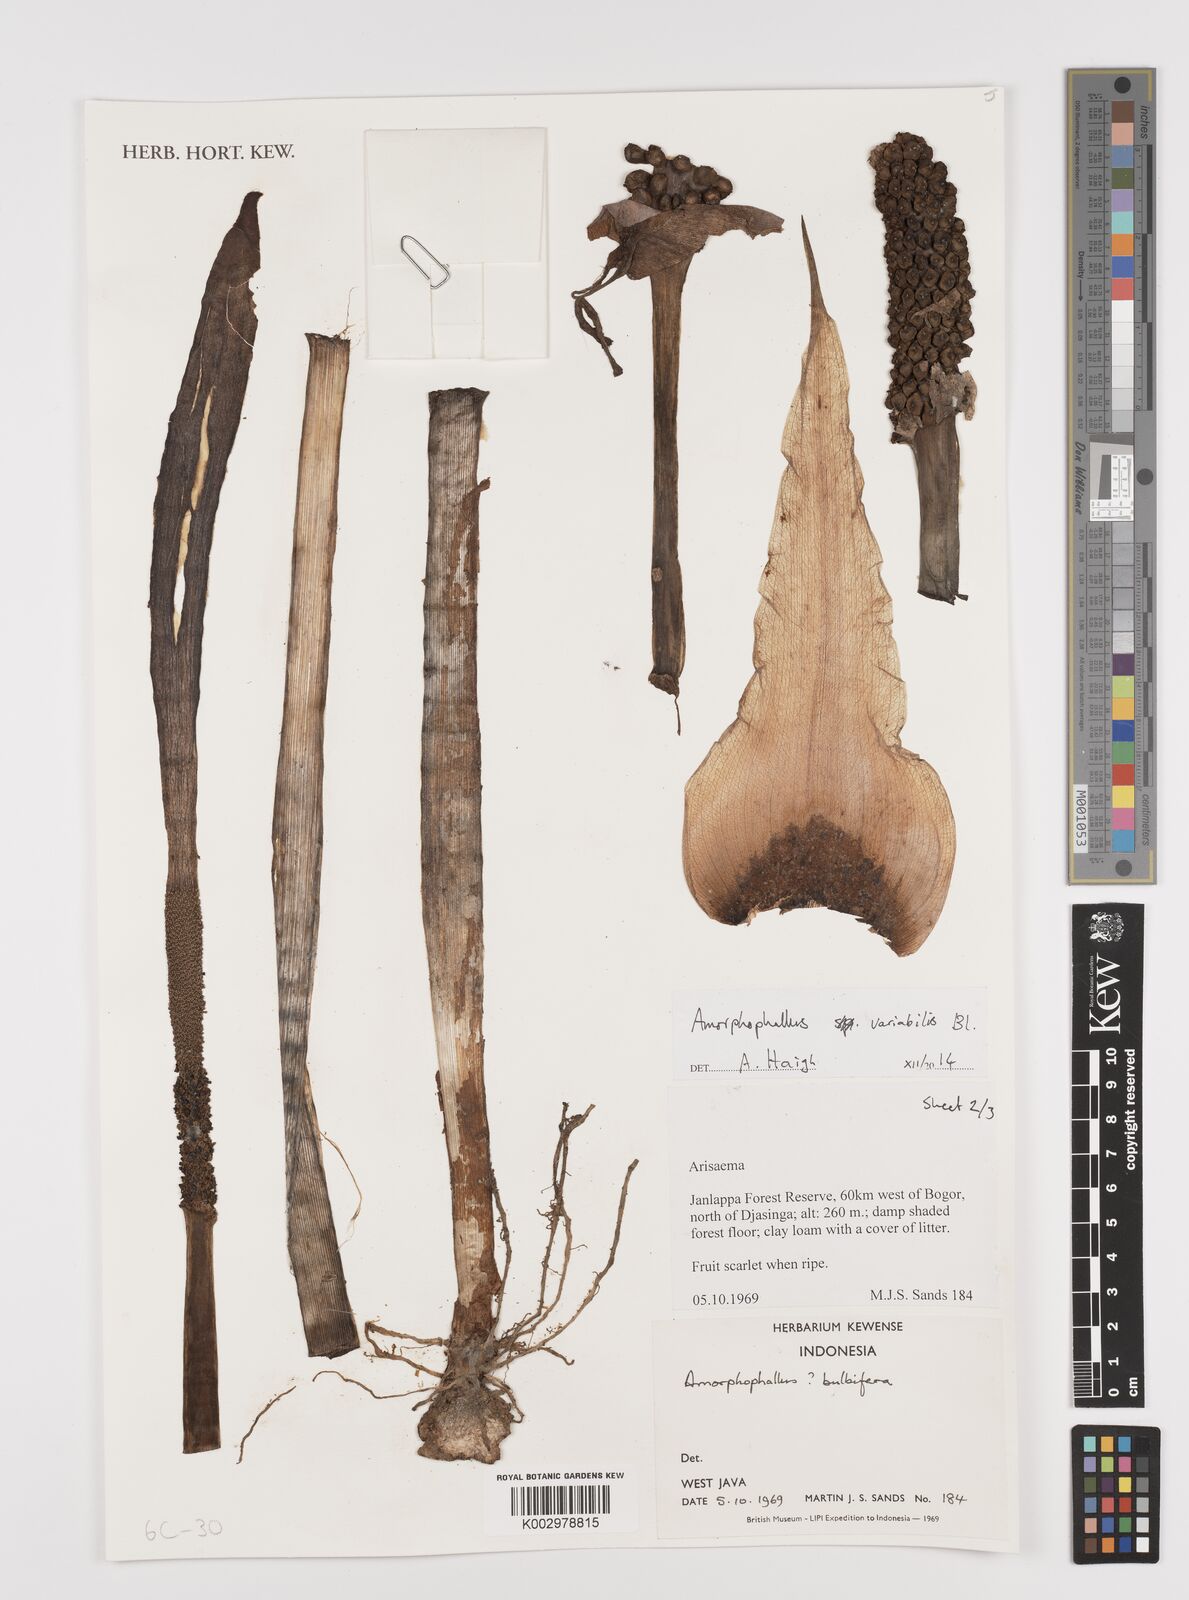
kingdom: Plantae
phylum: Tracheophyta
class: Liliopsida
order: Alismatales
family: Araceae
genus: Amorphophallus
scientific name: Amorphophallus variabilis
